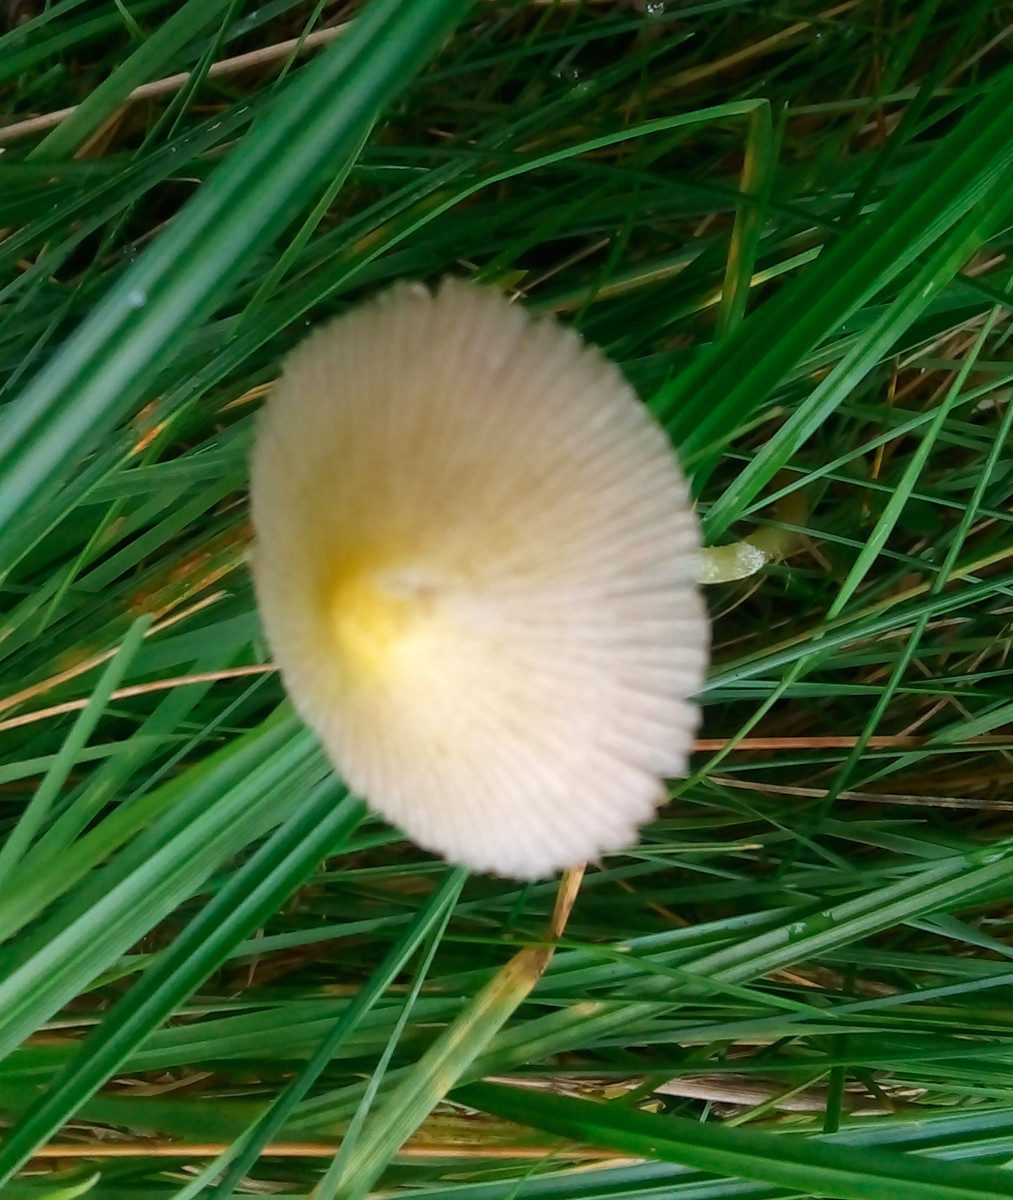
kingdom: Fungi
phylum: Basidiomycota
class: Agaricomycetes
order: Agaricales
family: Bolbitiaceae
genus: Bolbitius
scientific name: Bolbitius titubans
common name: almindelig gulhat
